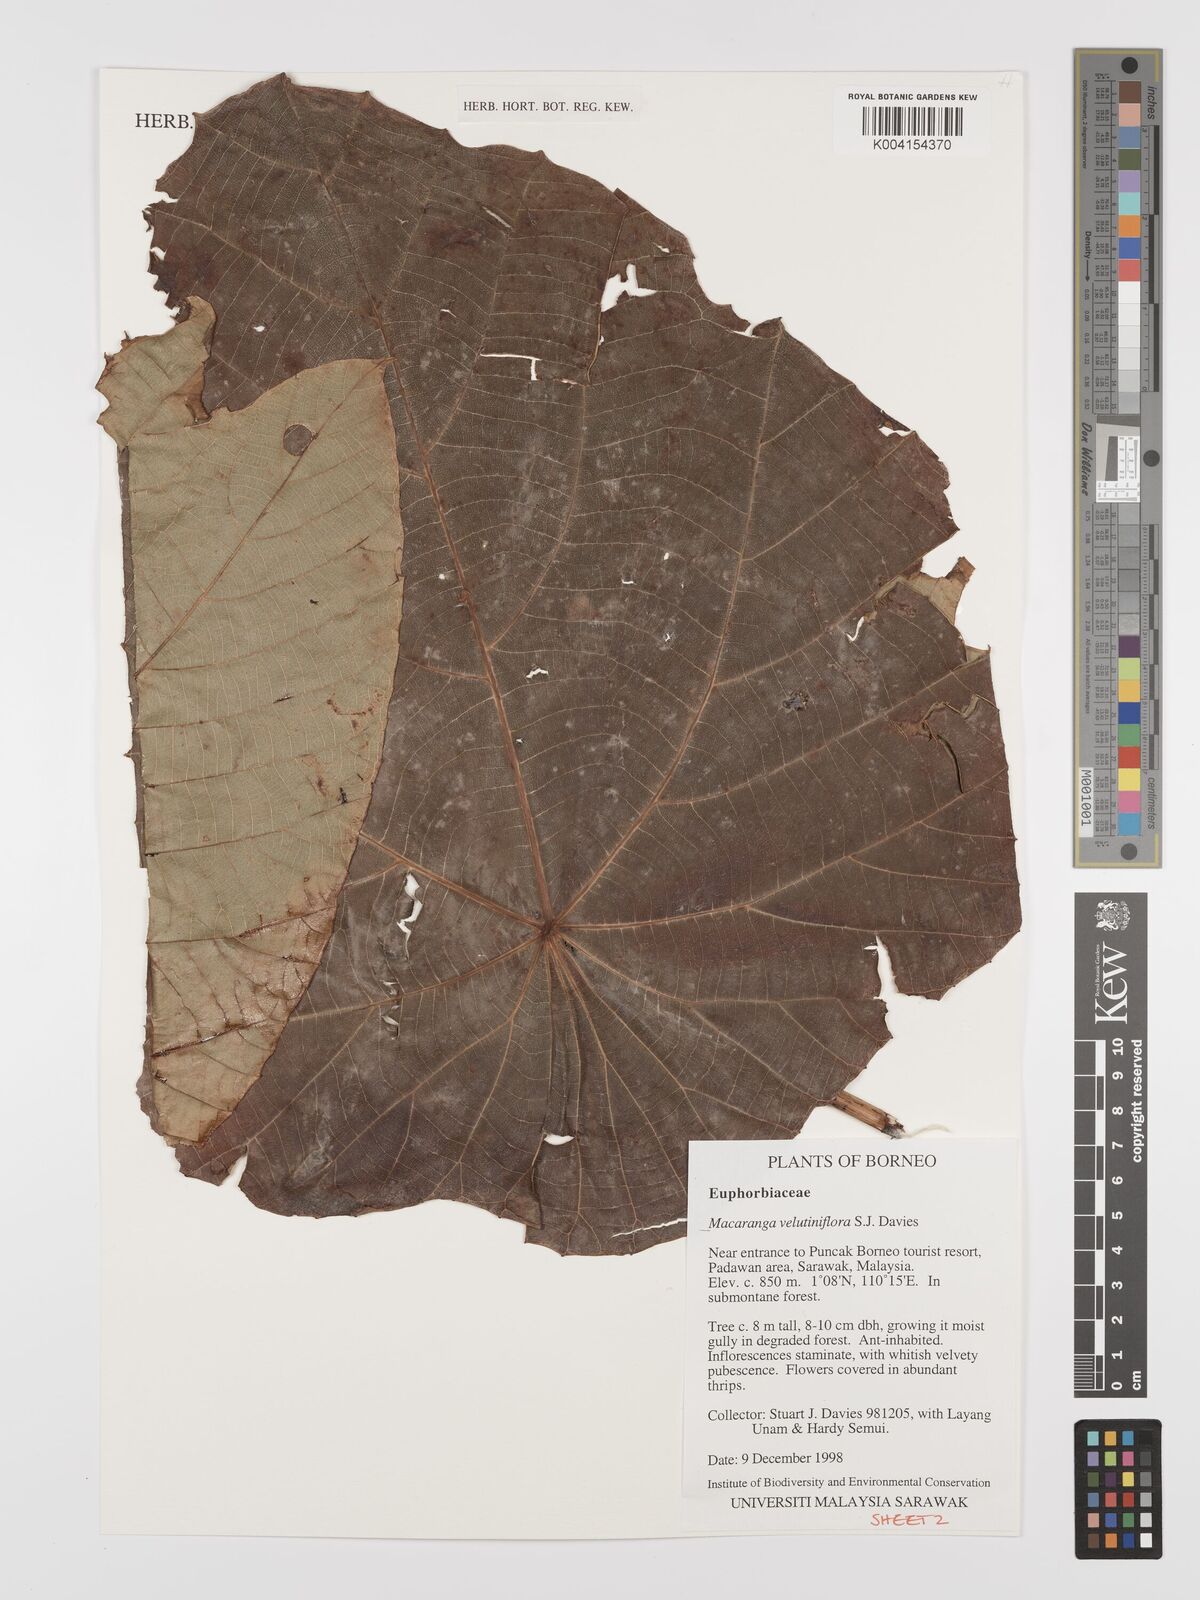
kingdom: Plantae
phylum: Tracheophyta
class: Magnoliopsida
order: Malpighiales
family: Euphorbiaceae
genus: Macaranga
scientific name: Macaranga velutiniflora
